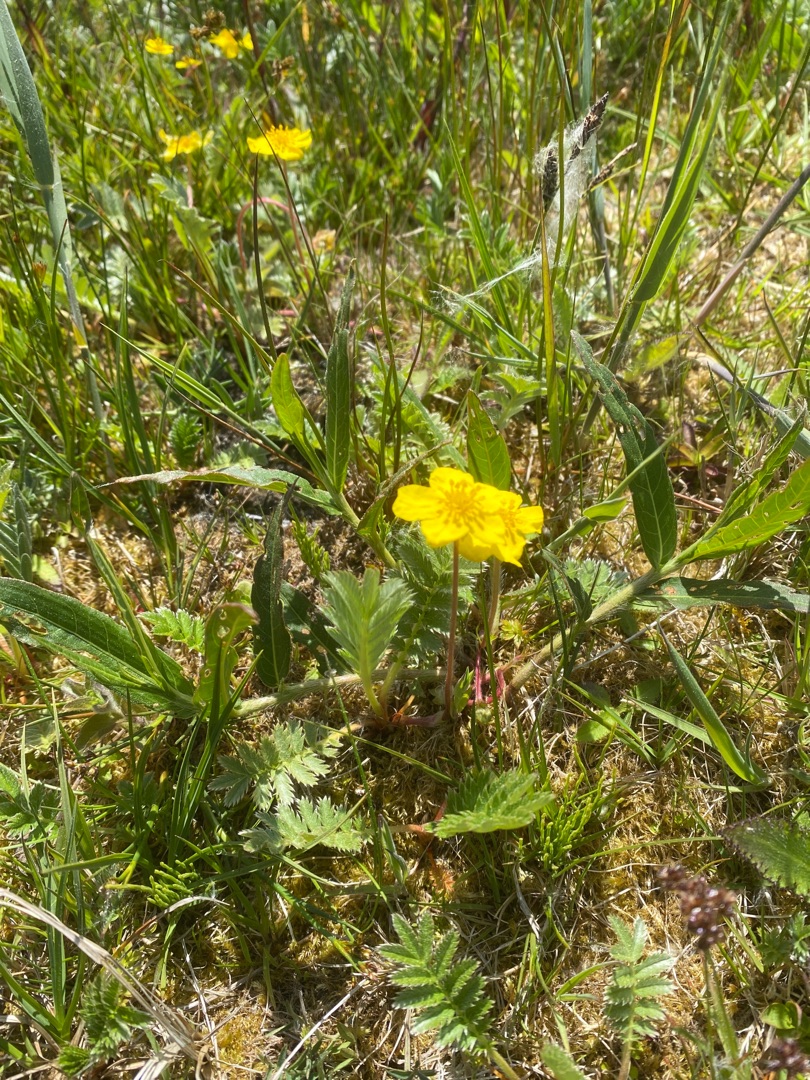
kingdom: Plantae
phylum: Tracheophyta
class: Magnoliopsida
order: Rosales
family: Rosaceae
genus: Argentina
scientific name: Argentina anserina
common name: Gåsepotentil
